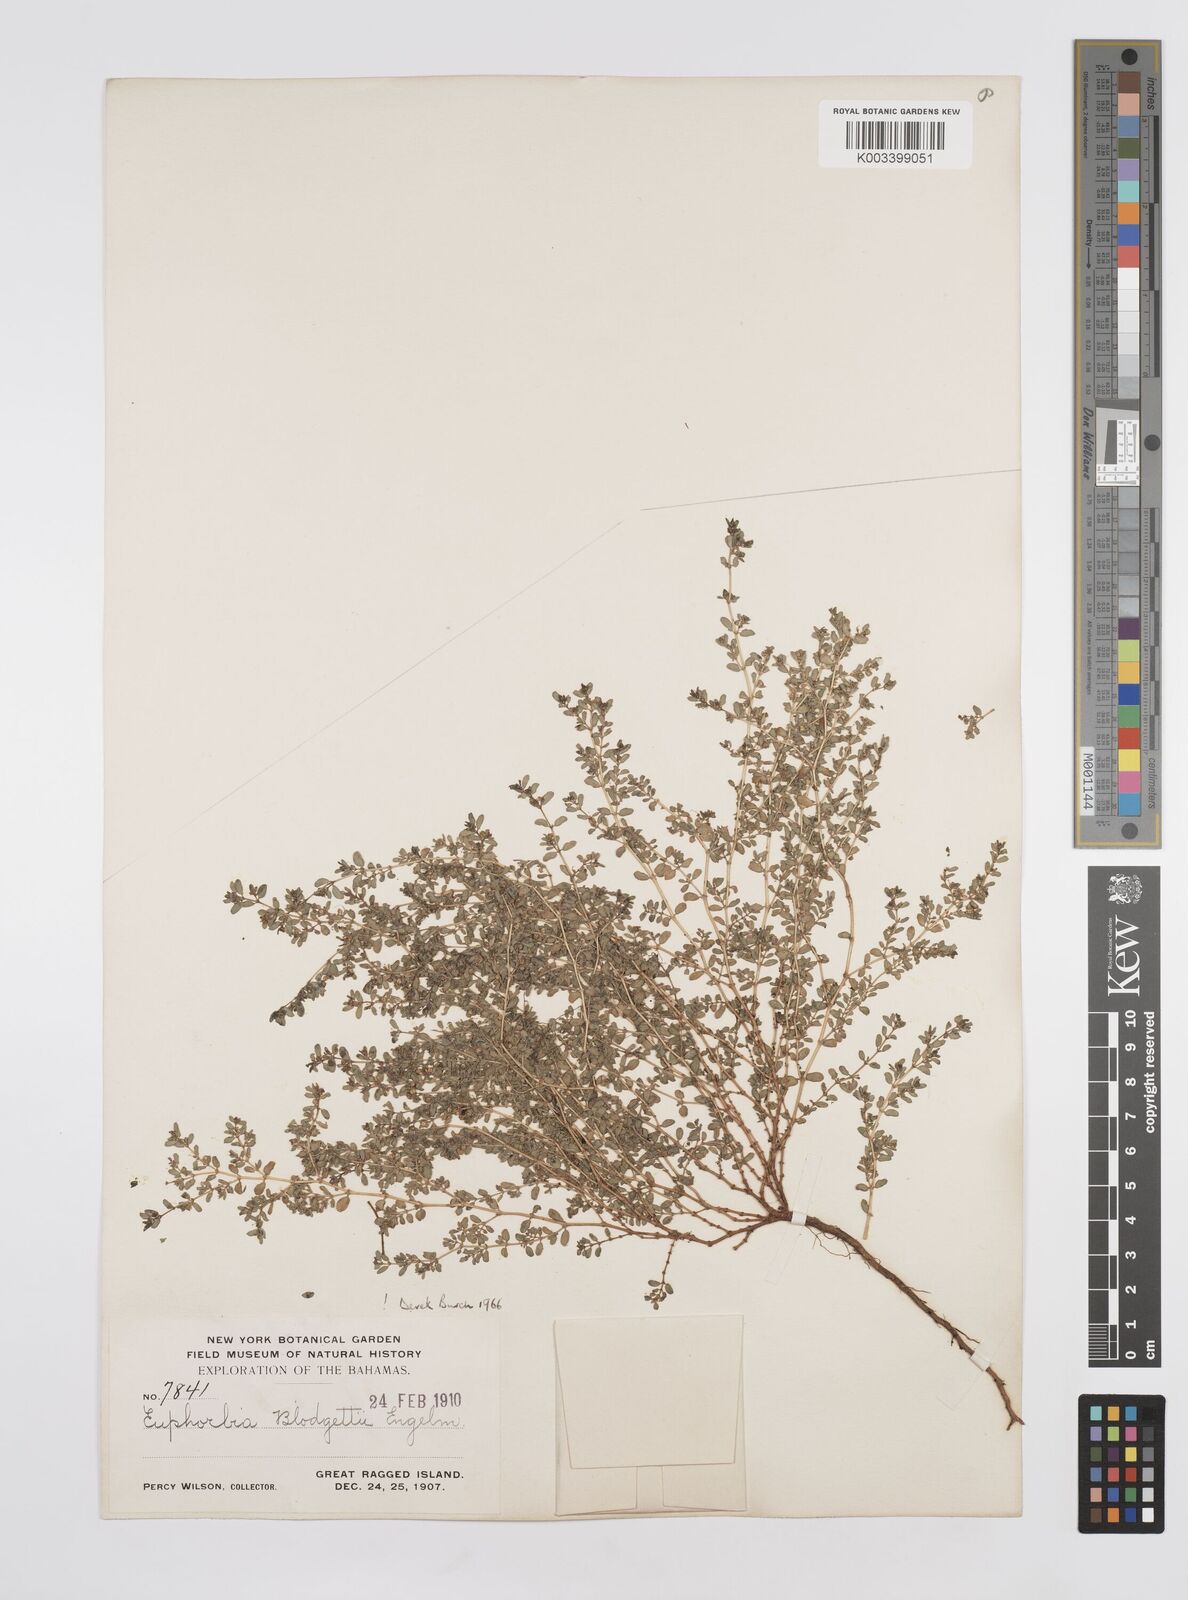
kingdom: Plantae
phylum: Tracheophyta
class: Magnoliopsida
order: Malpighiales
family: Euphorbiaceae
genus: Euphorbia
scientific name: Euphorbia blodgettii
